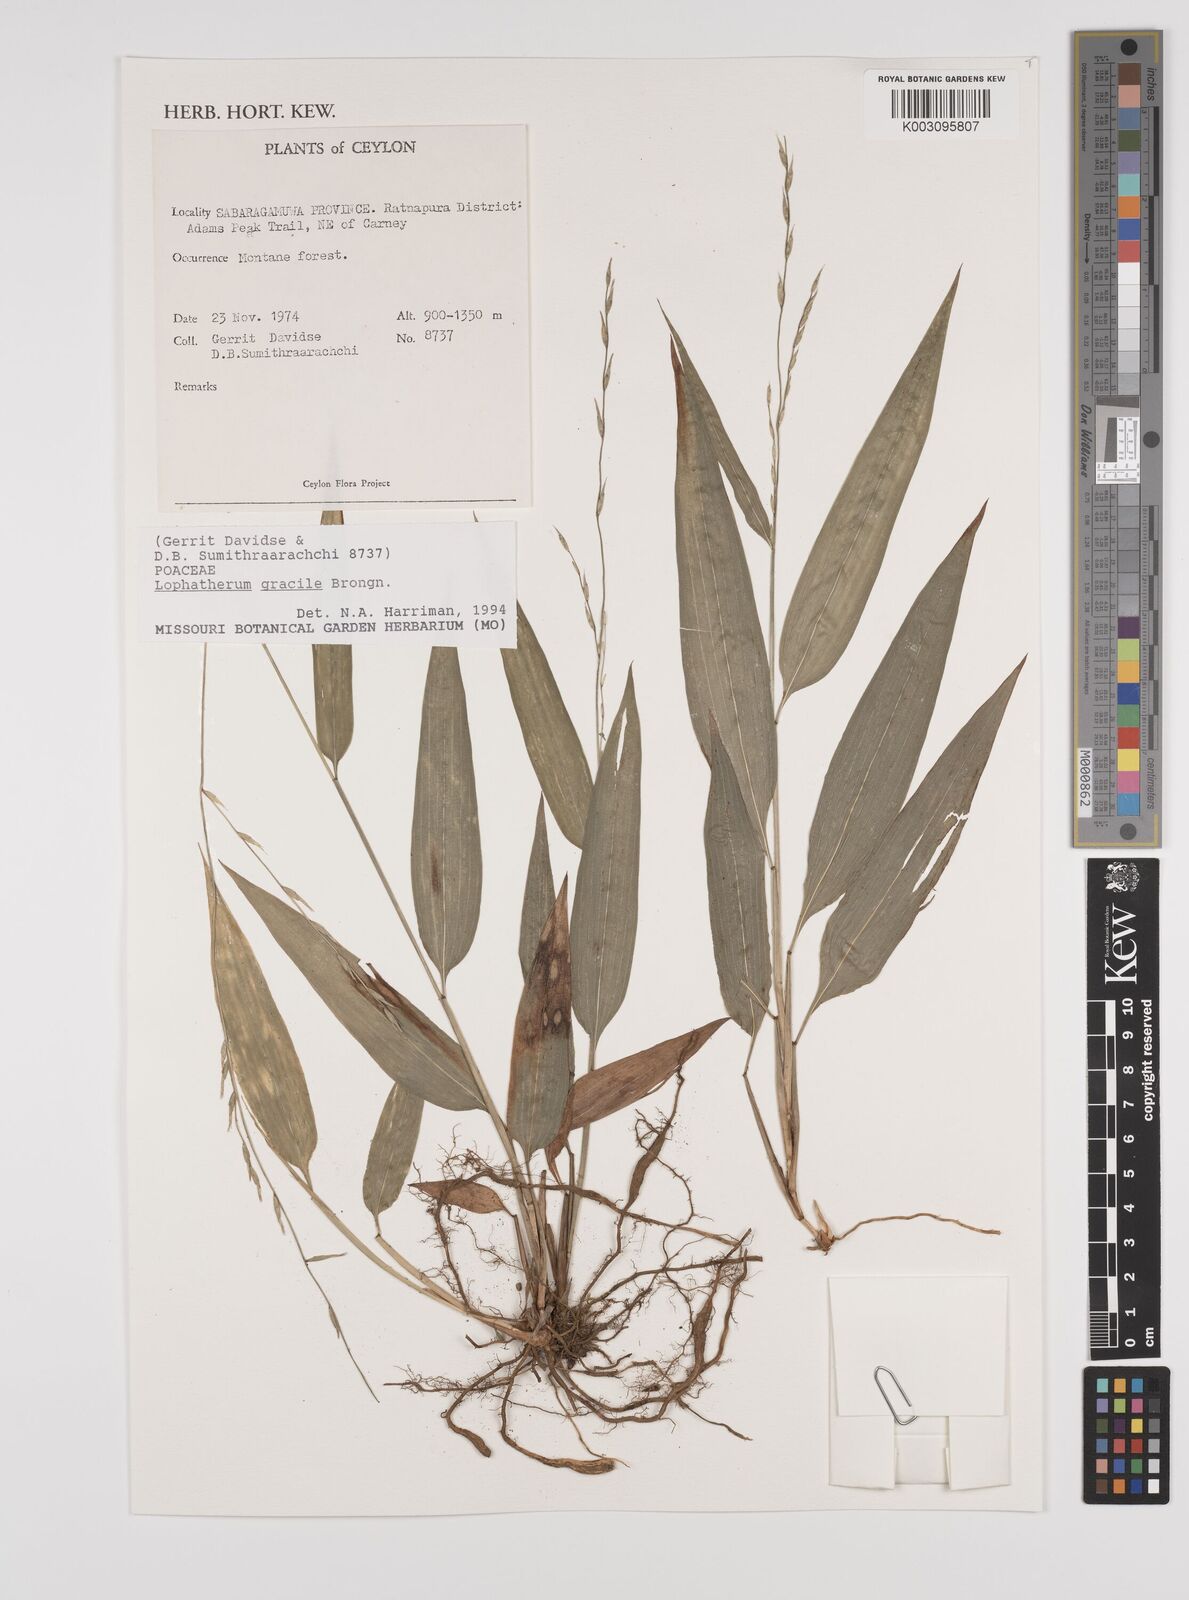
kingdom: Plantae
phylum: Tracheophyta
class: Liliopsida
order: Poales
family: Poaceae
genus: Lophatherum
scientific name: Lophatherum gracile
